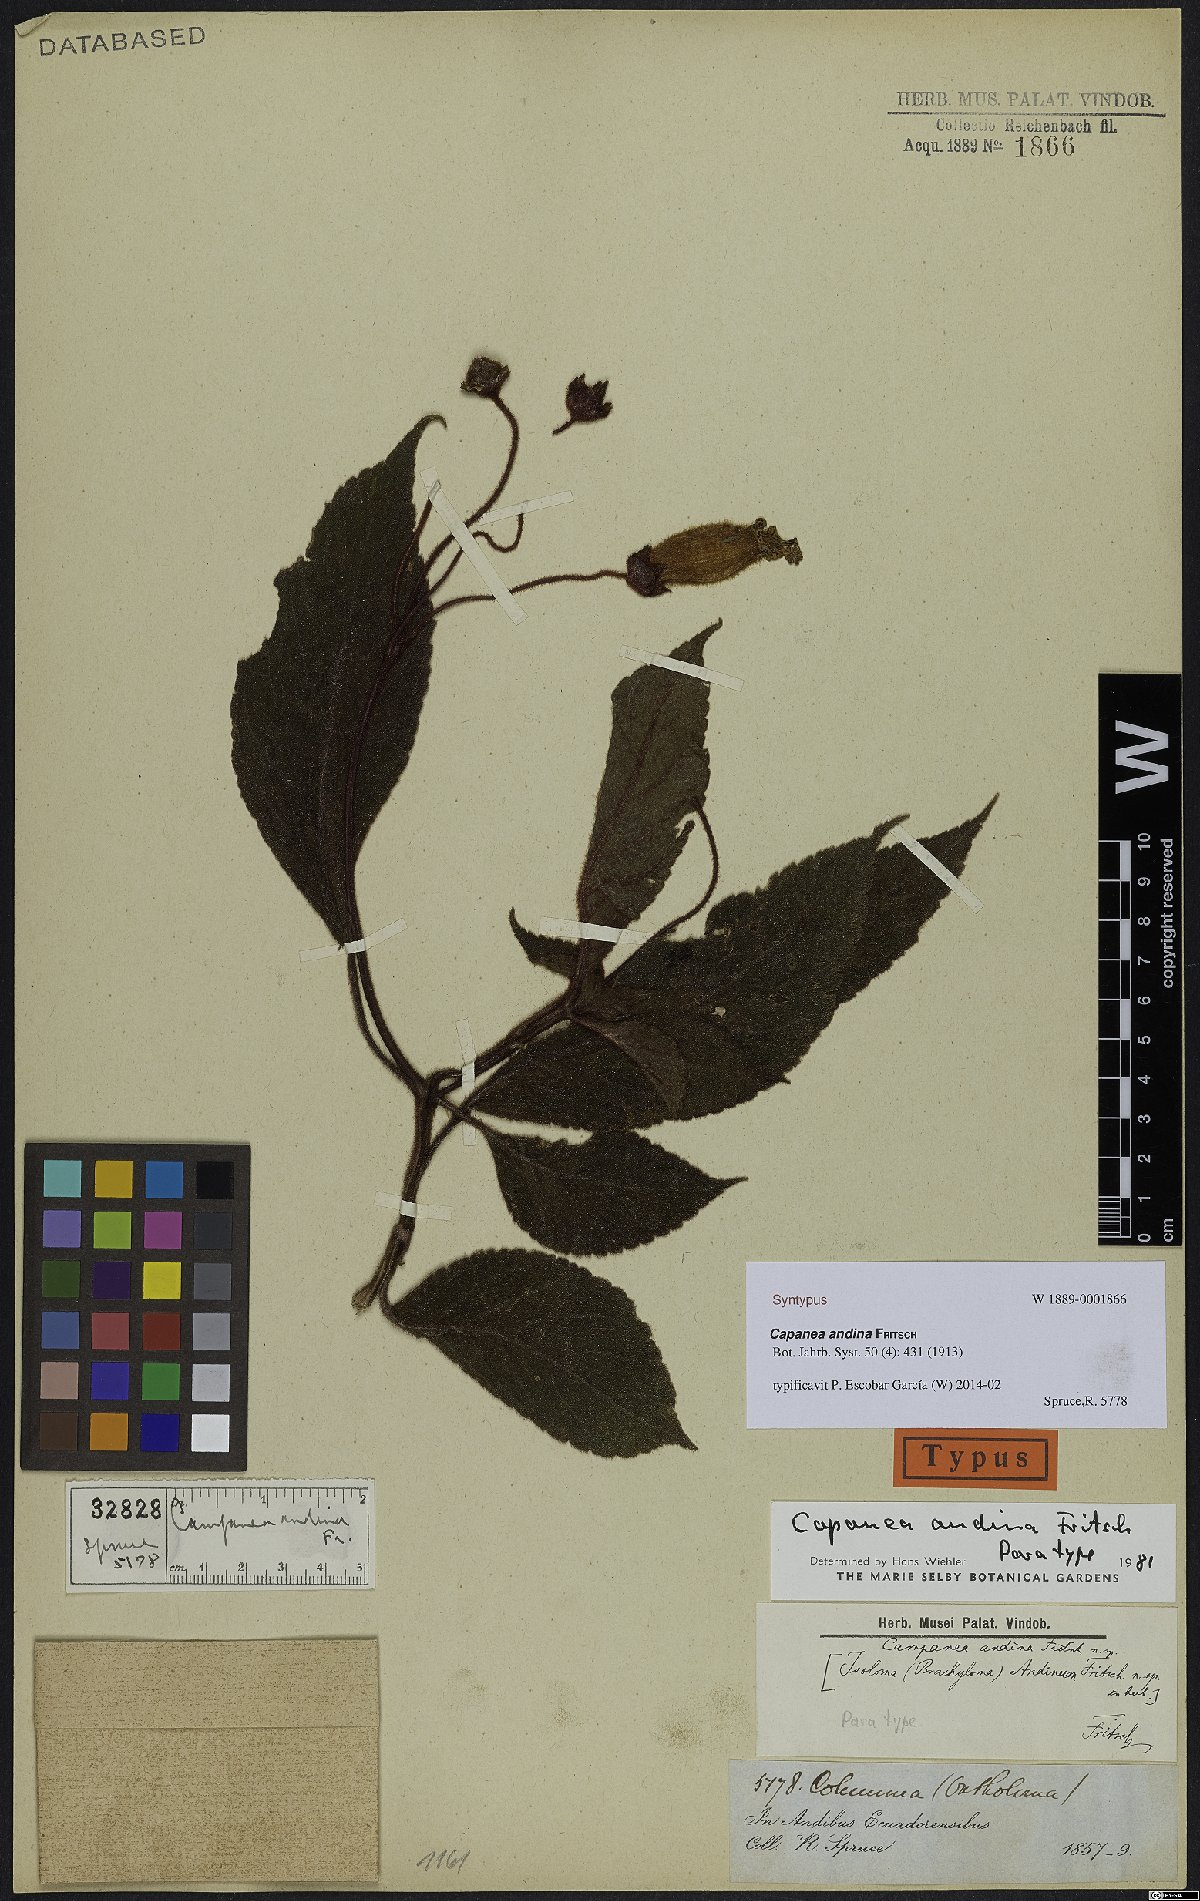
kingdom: Plantae
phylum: Tracheophyta
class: Magnoliopsida
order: Lamiales
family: Gesneriaceae
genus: Kohleria
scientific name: Kohleria andina
